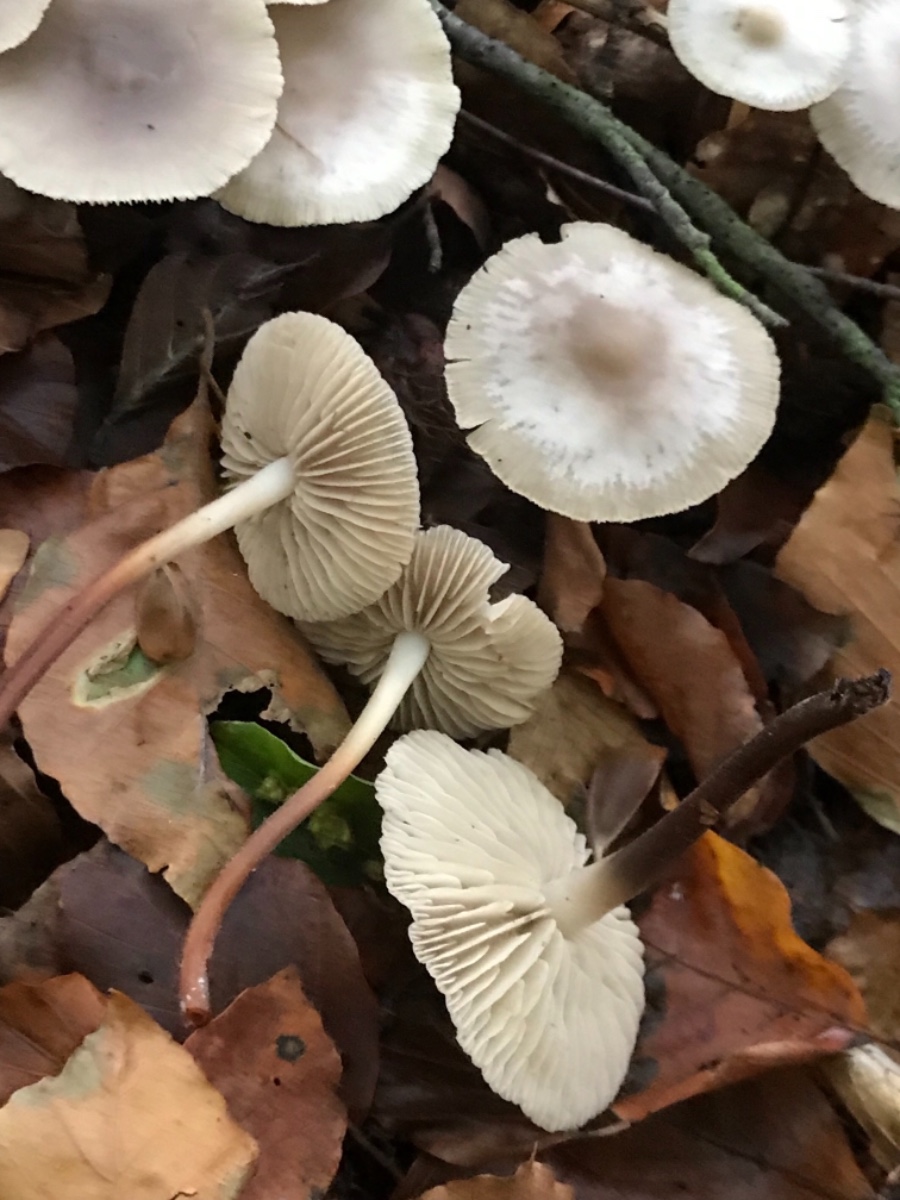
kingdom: Fungi
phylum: Basidiomycota
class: Agaricomycetes
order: Agaricales
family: Marasmiaceae
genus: Marasmius
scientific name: Marasmius wynneae
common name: hvælvet bruskhat
